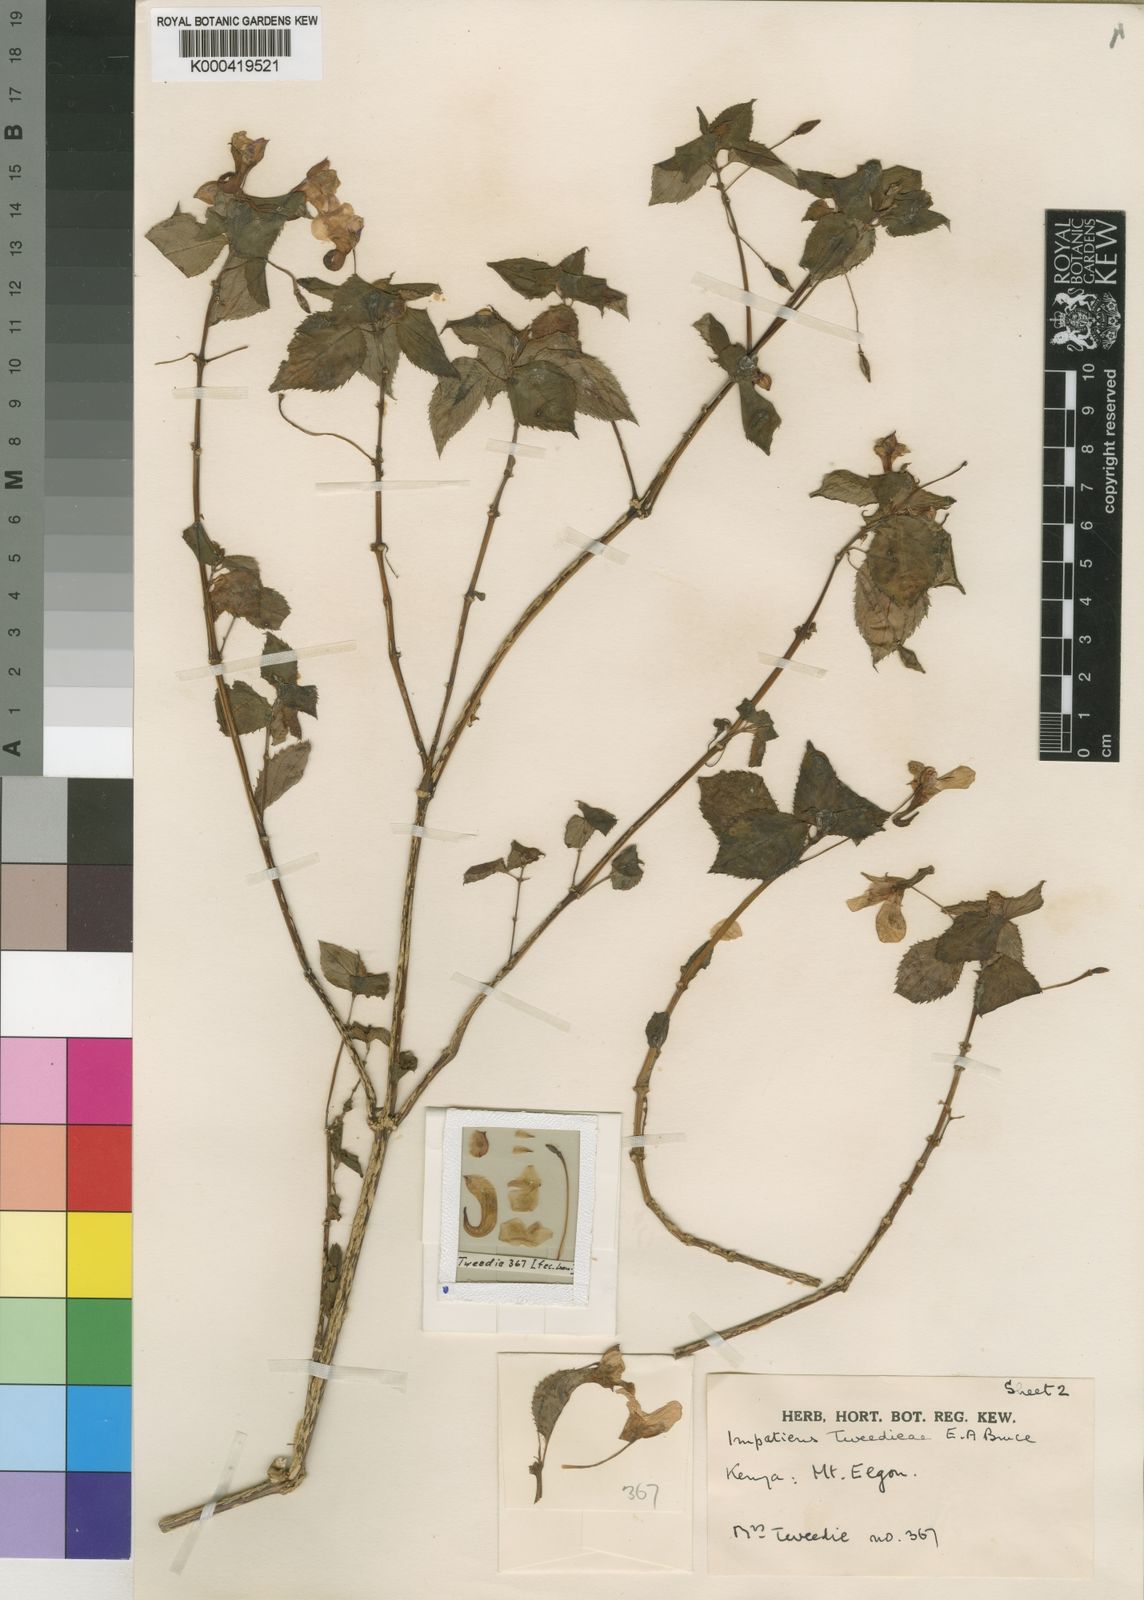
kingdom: Plantae
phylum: Tracheophyta
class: Magnoliopsida
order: Ericales
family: Balsaminaceae
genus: Impatiens
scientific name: Impatiens
